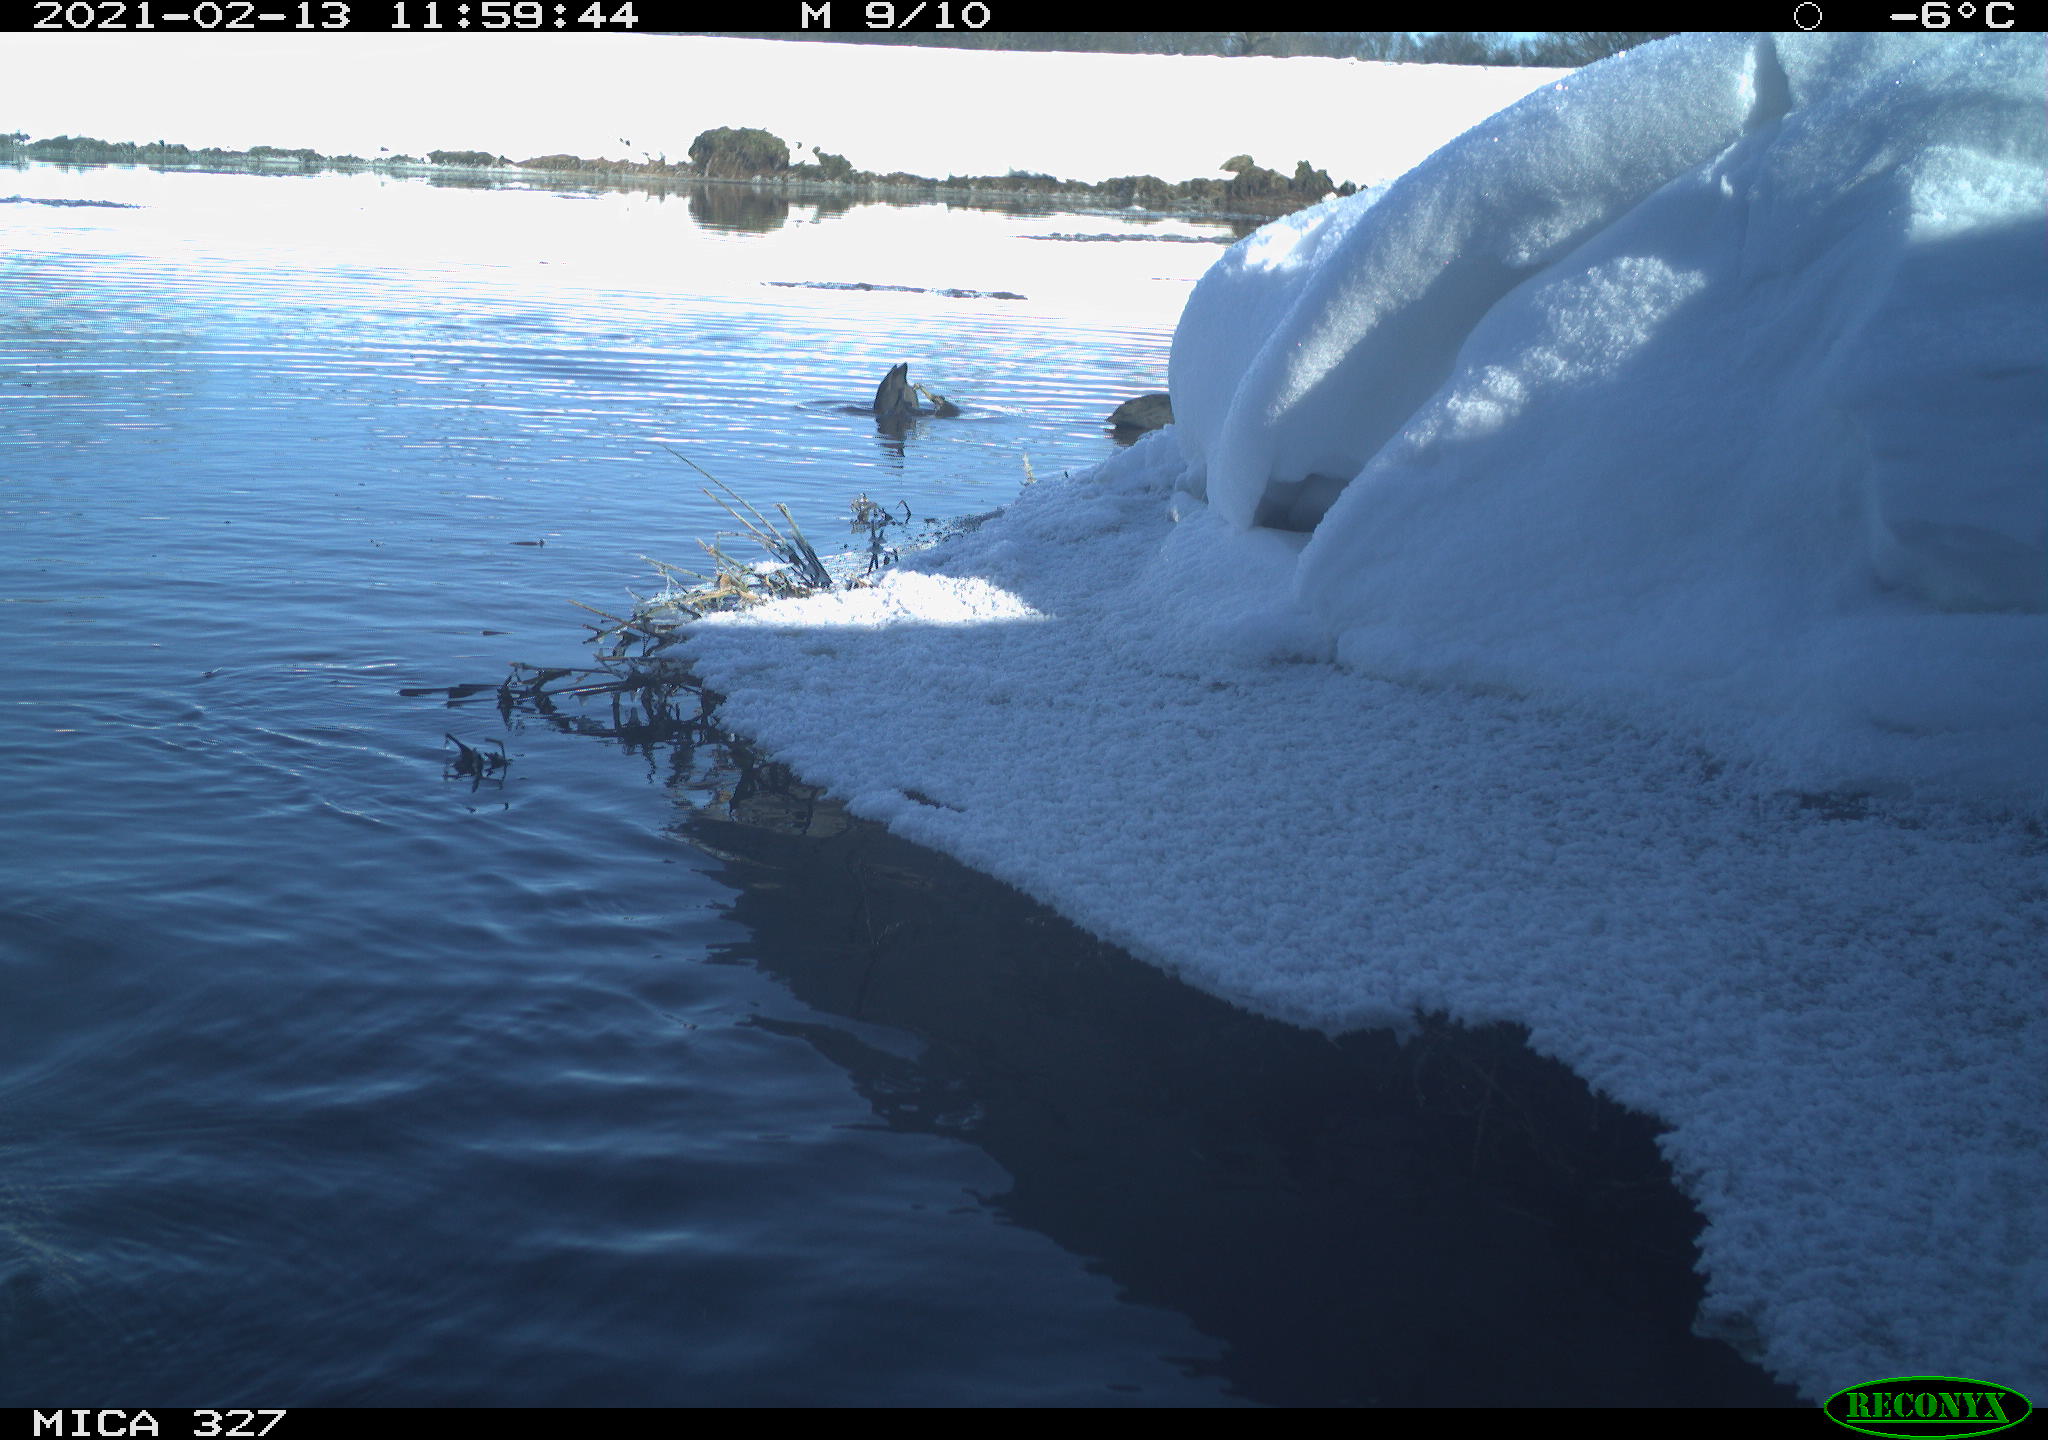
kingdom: Animalia
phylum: Chordata
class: Aves
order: Gruiformes
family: Rallidae
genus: Fulica
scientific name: Fulica atra
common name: Eurasian coot
